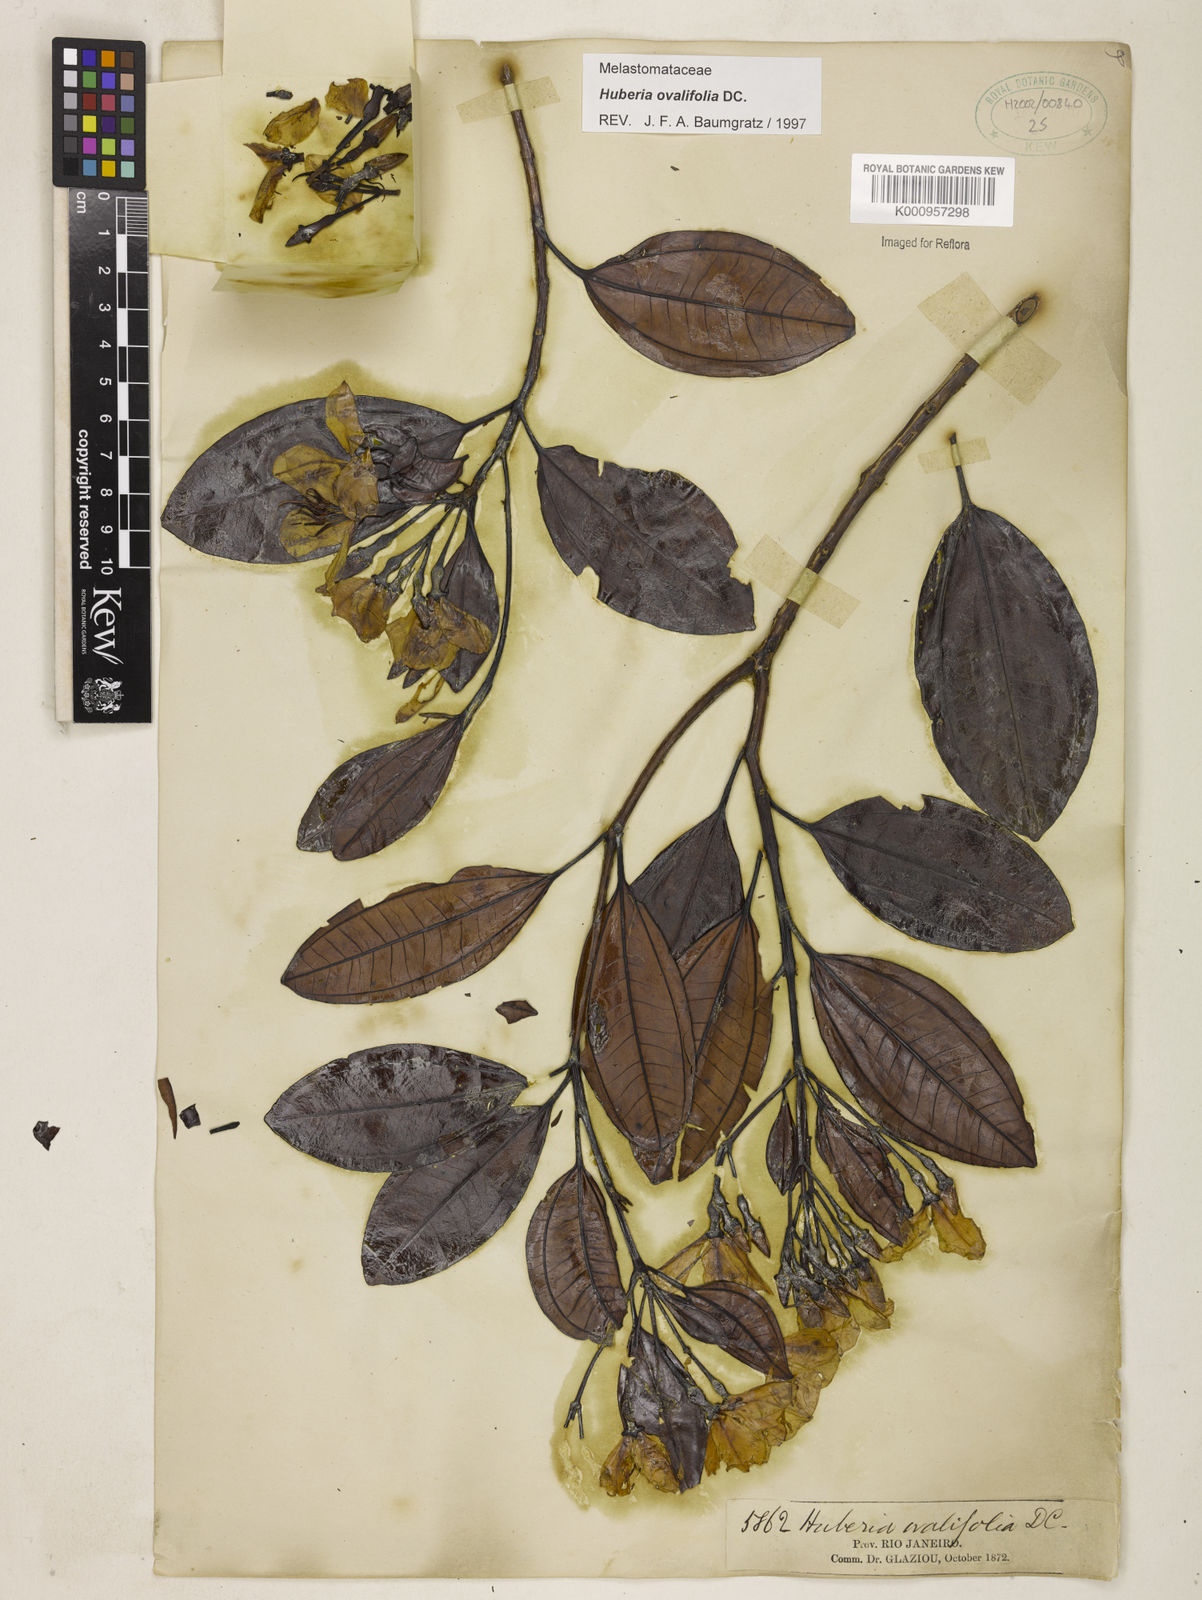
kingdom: Plantae
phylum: Tracheophyta
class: Magnoliopsida
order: Myrtales
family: Melastomataceae
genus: Huberia
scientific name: Huberia ovalifolia
